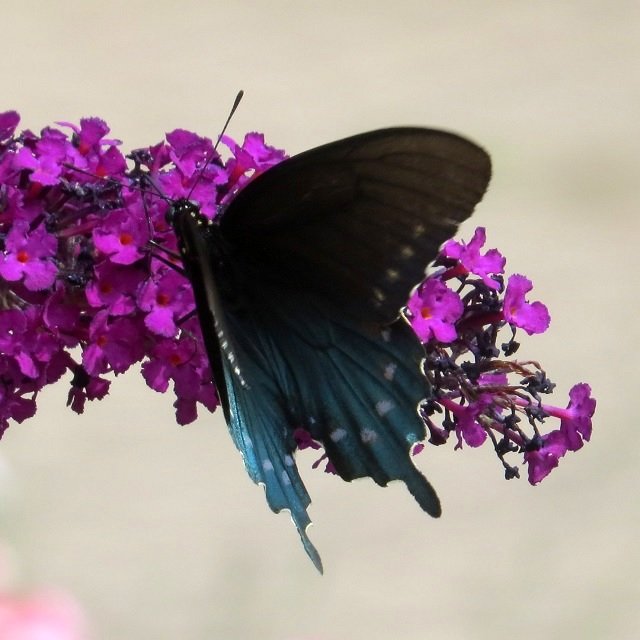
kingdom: Animalia
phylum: Arthropoda
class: Insecta
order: Lepidoptera
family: Papilionidae
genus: Battus
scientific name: Battus philenor
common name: Pipevine Swallowtail
